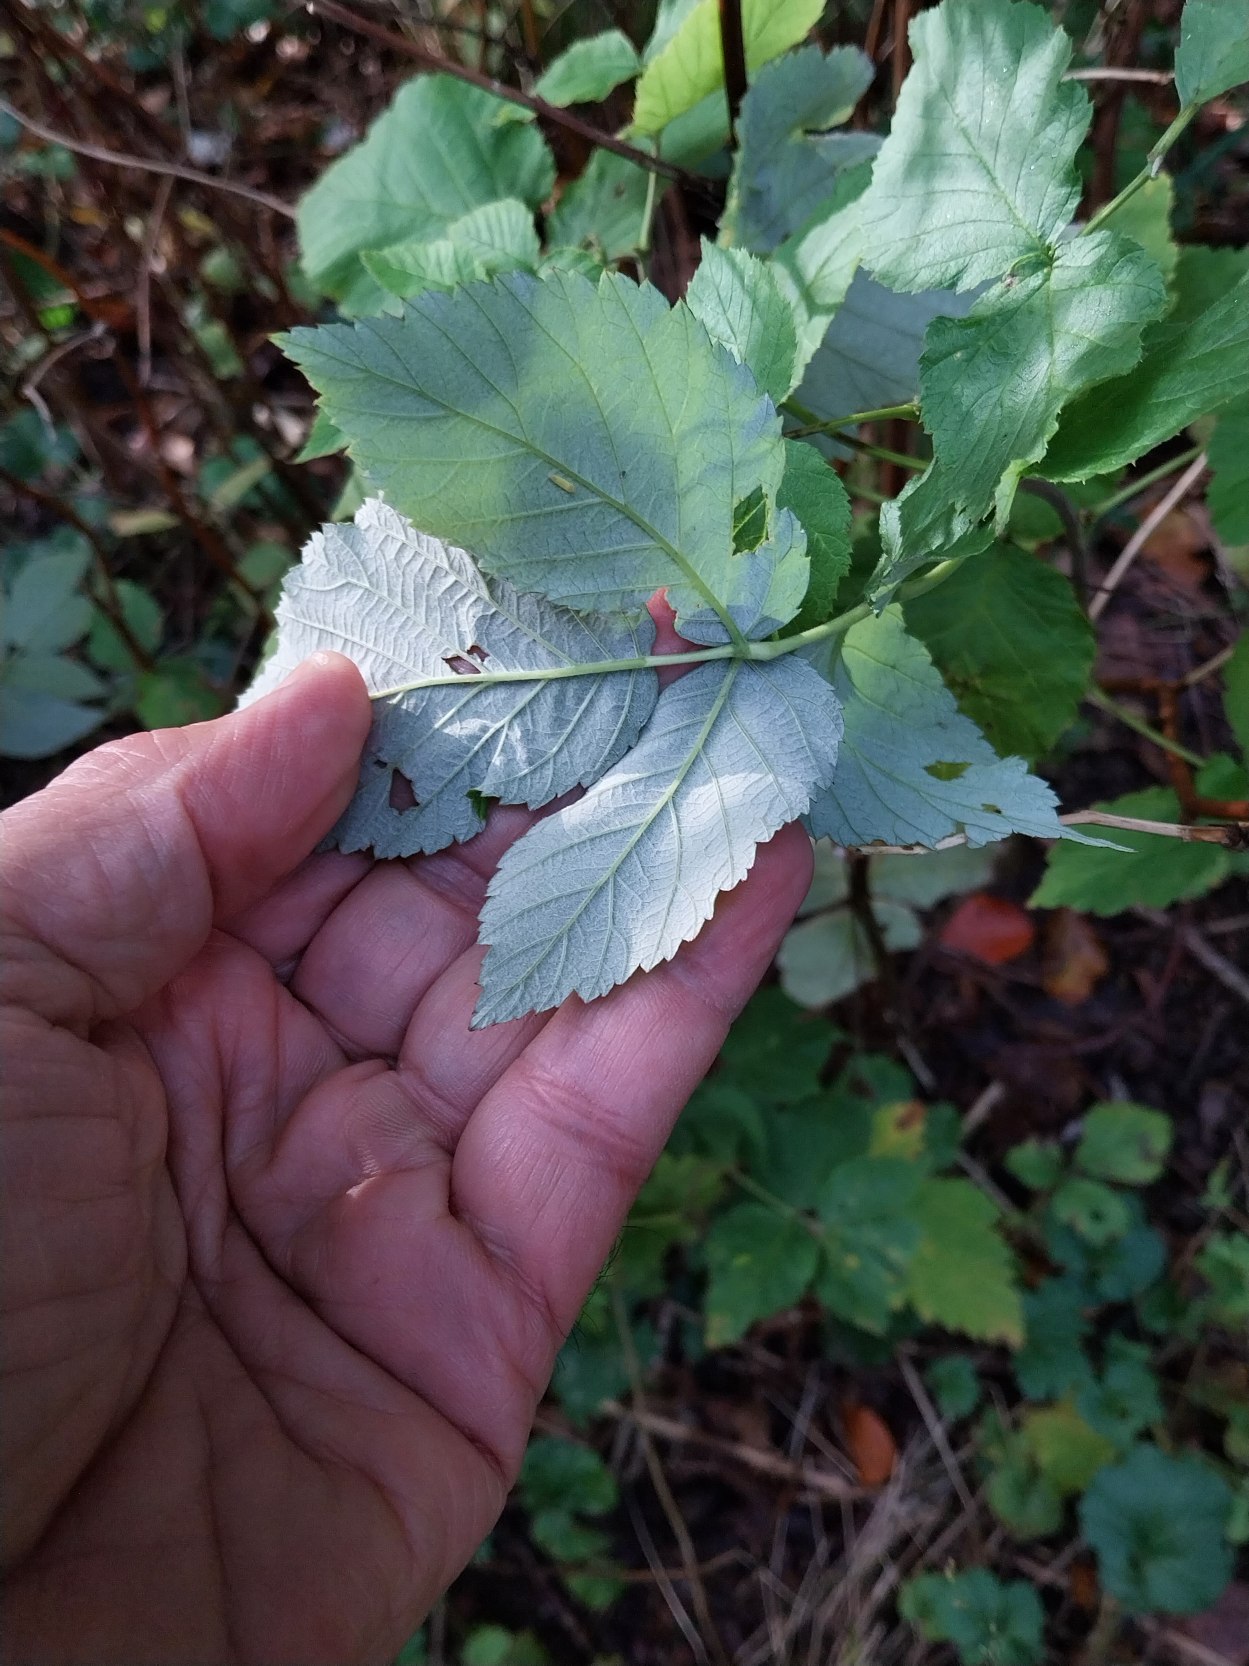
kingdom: Plantae
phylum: Tracheophyta
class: Magnoliopsida
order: Rosales
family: Rosaceae
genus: Rubus
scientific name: Rubus idaeus
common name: Hindbær
